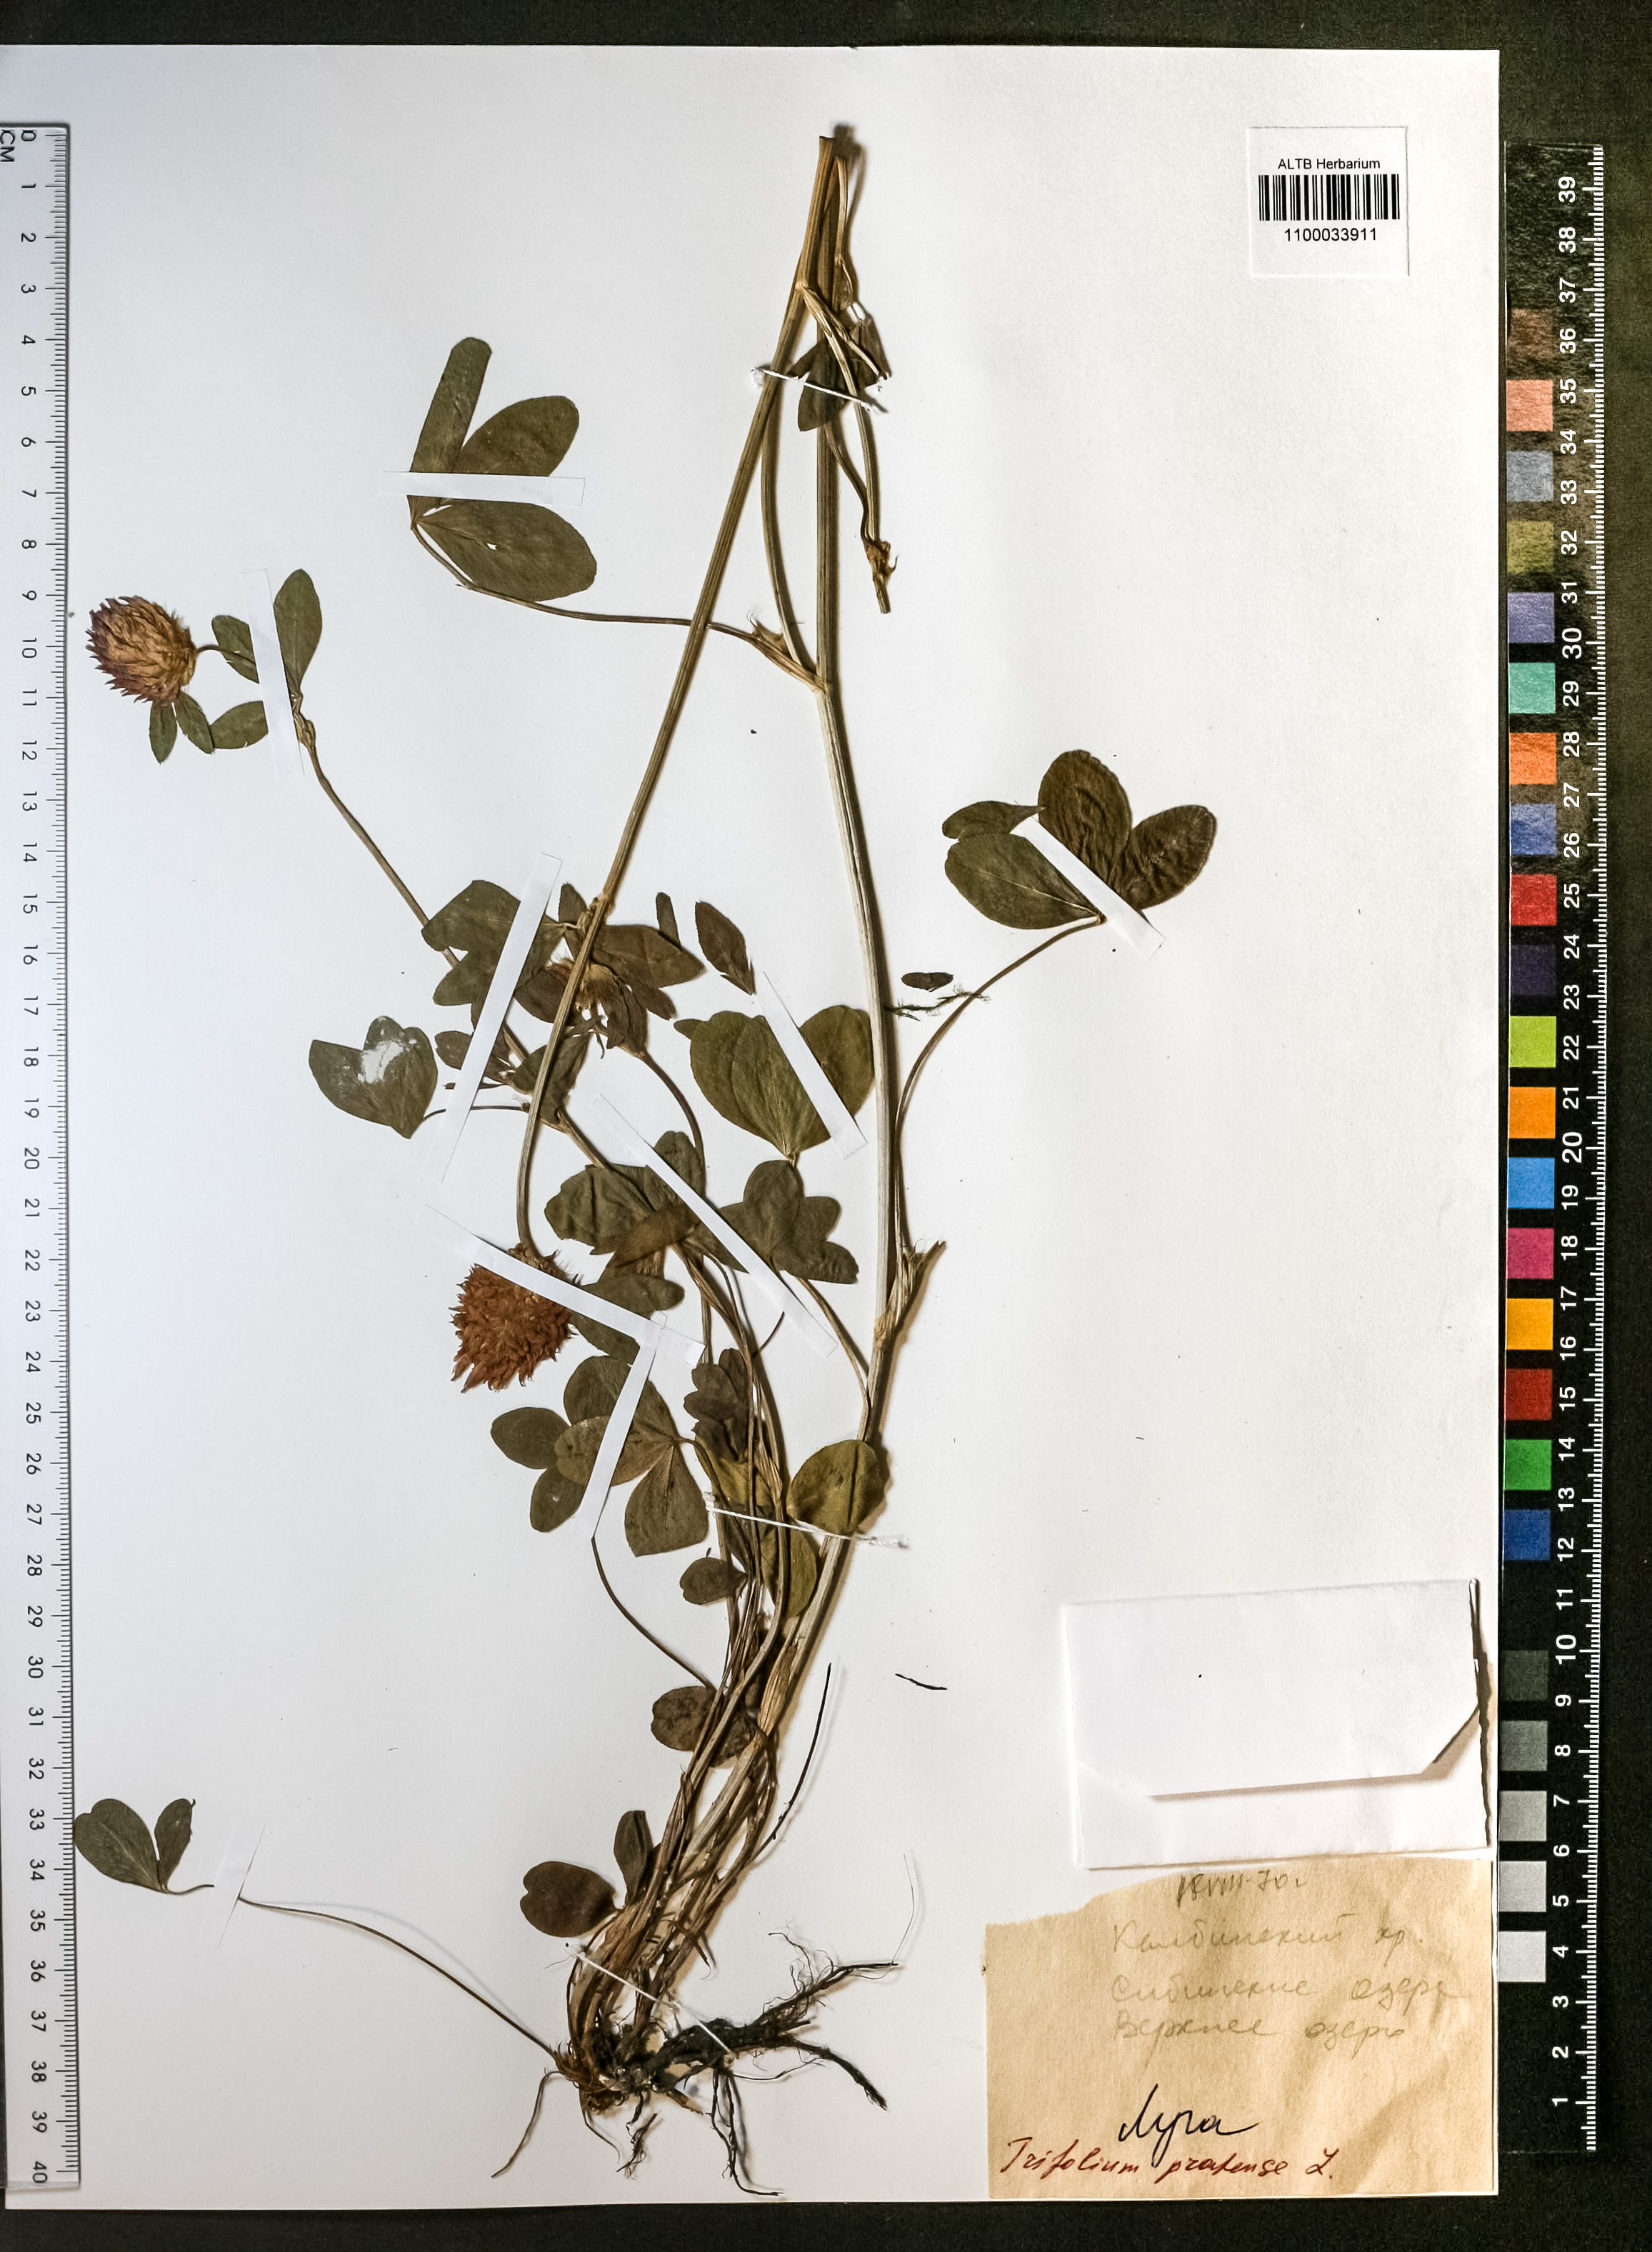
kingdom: Plantae
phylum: Tracheophyta
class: Magnoliopsida
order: Fabales
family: Fabaceae
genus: Trifolium
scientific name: Trifolium pratense
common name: Red clover
